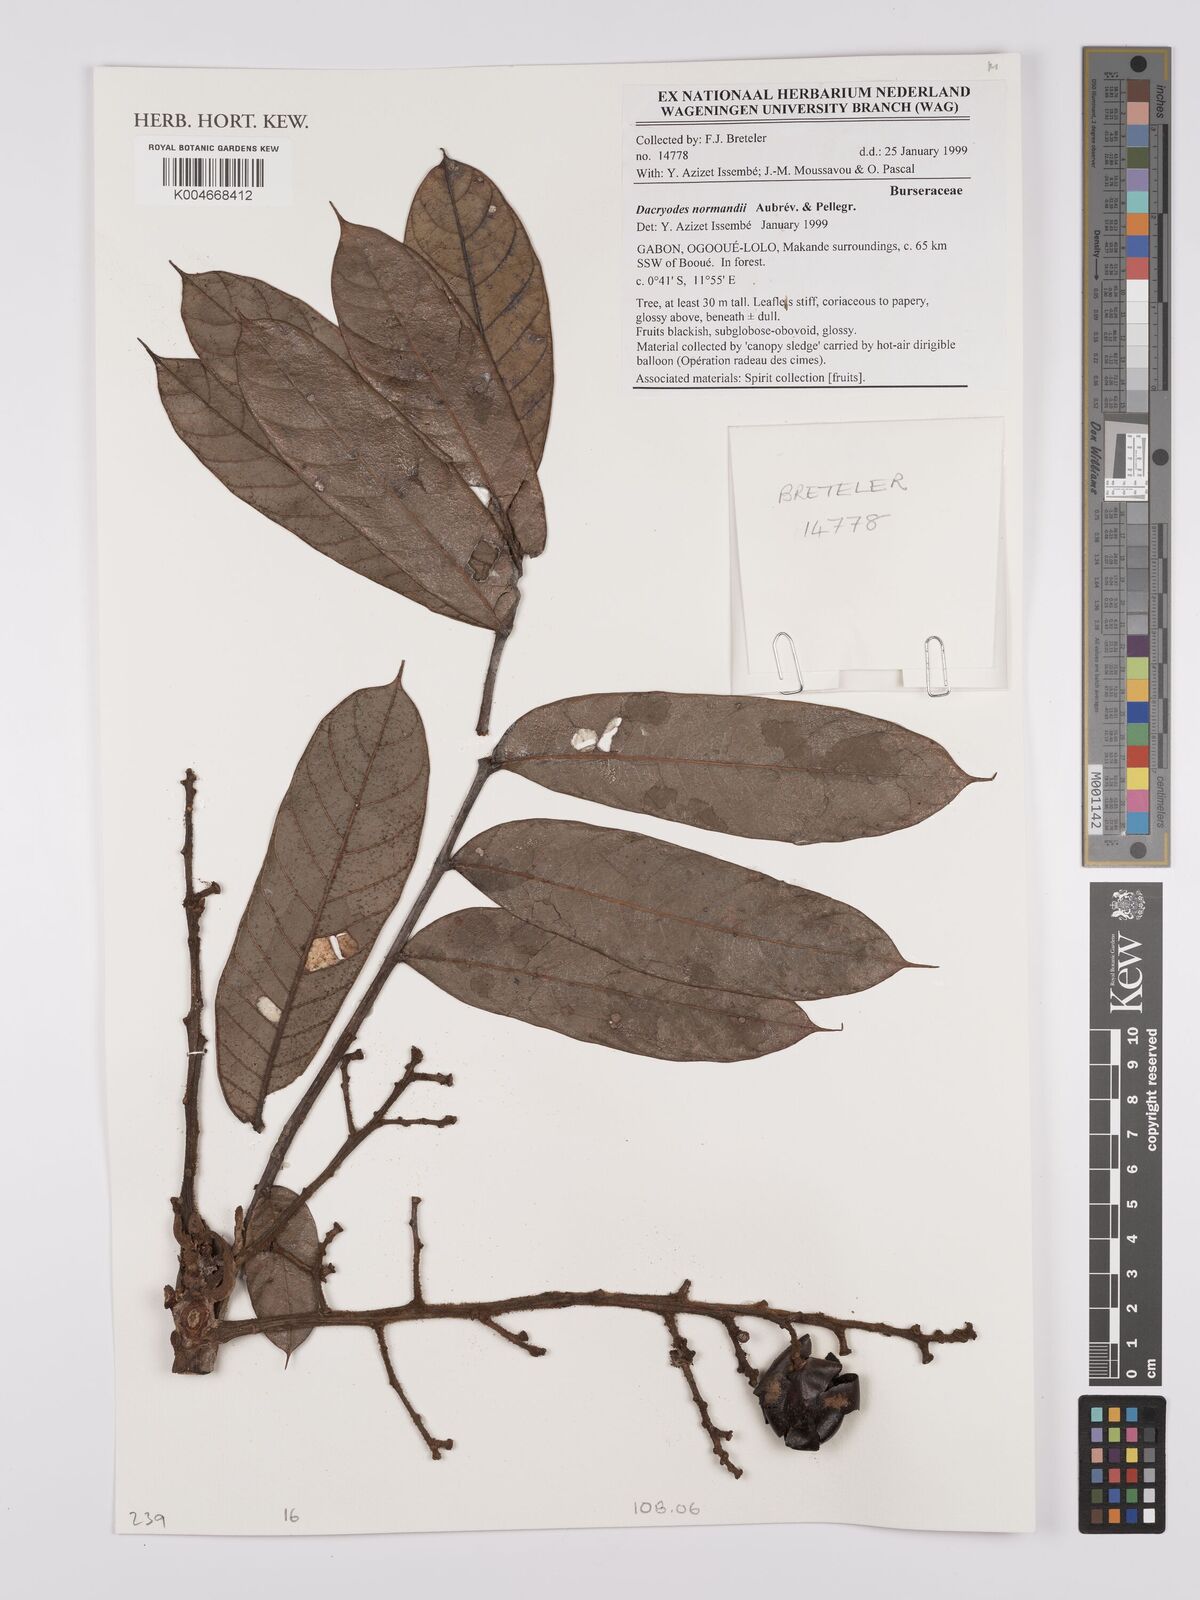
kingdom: Plantae
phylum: Tracheophyta
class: Magnoliopsida
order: Sapindales
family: Burseraceae
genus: Pachylobus
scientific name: Pachylobus normandii
